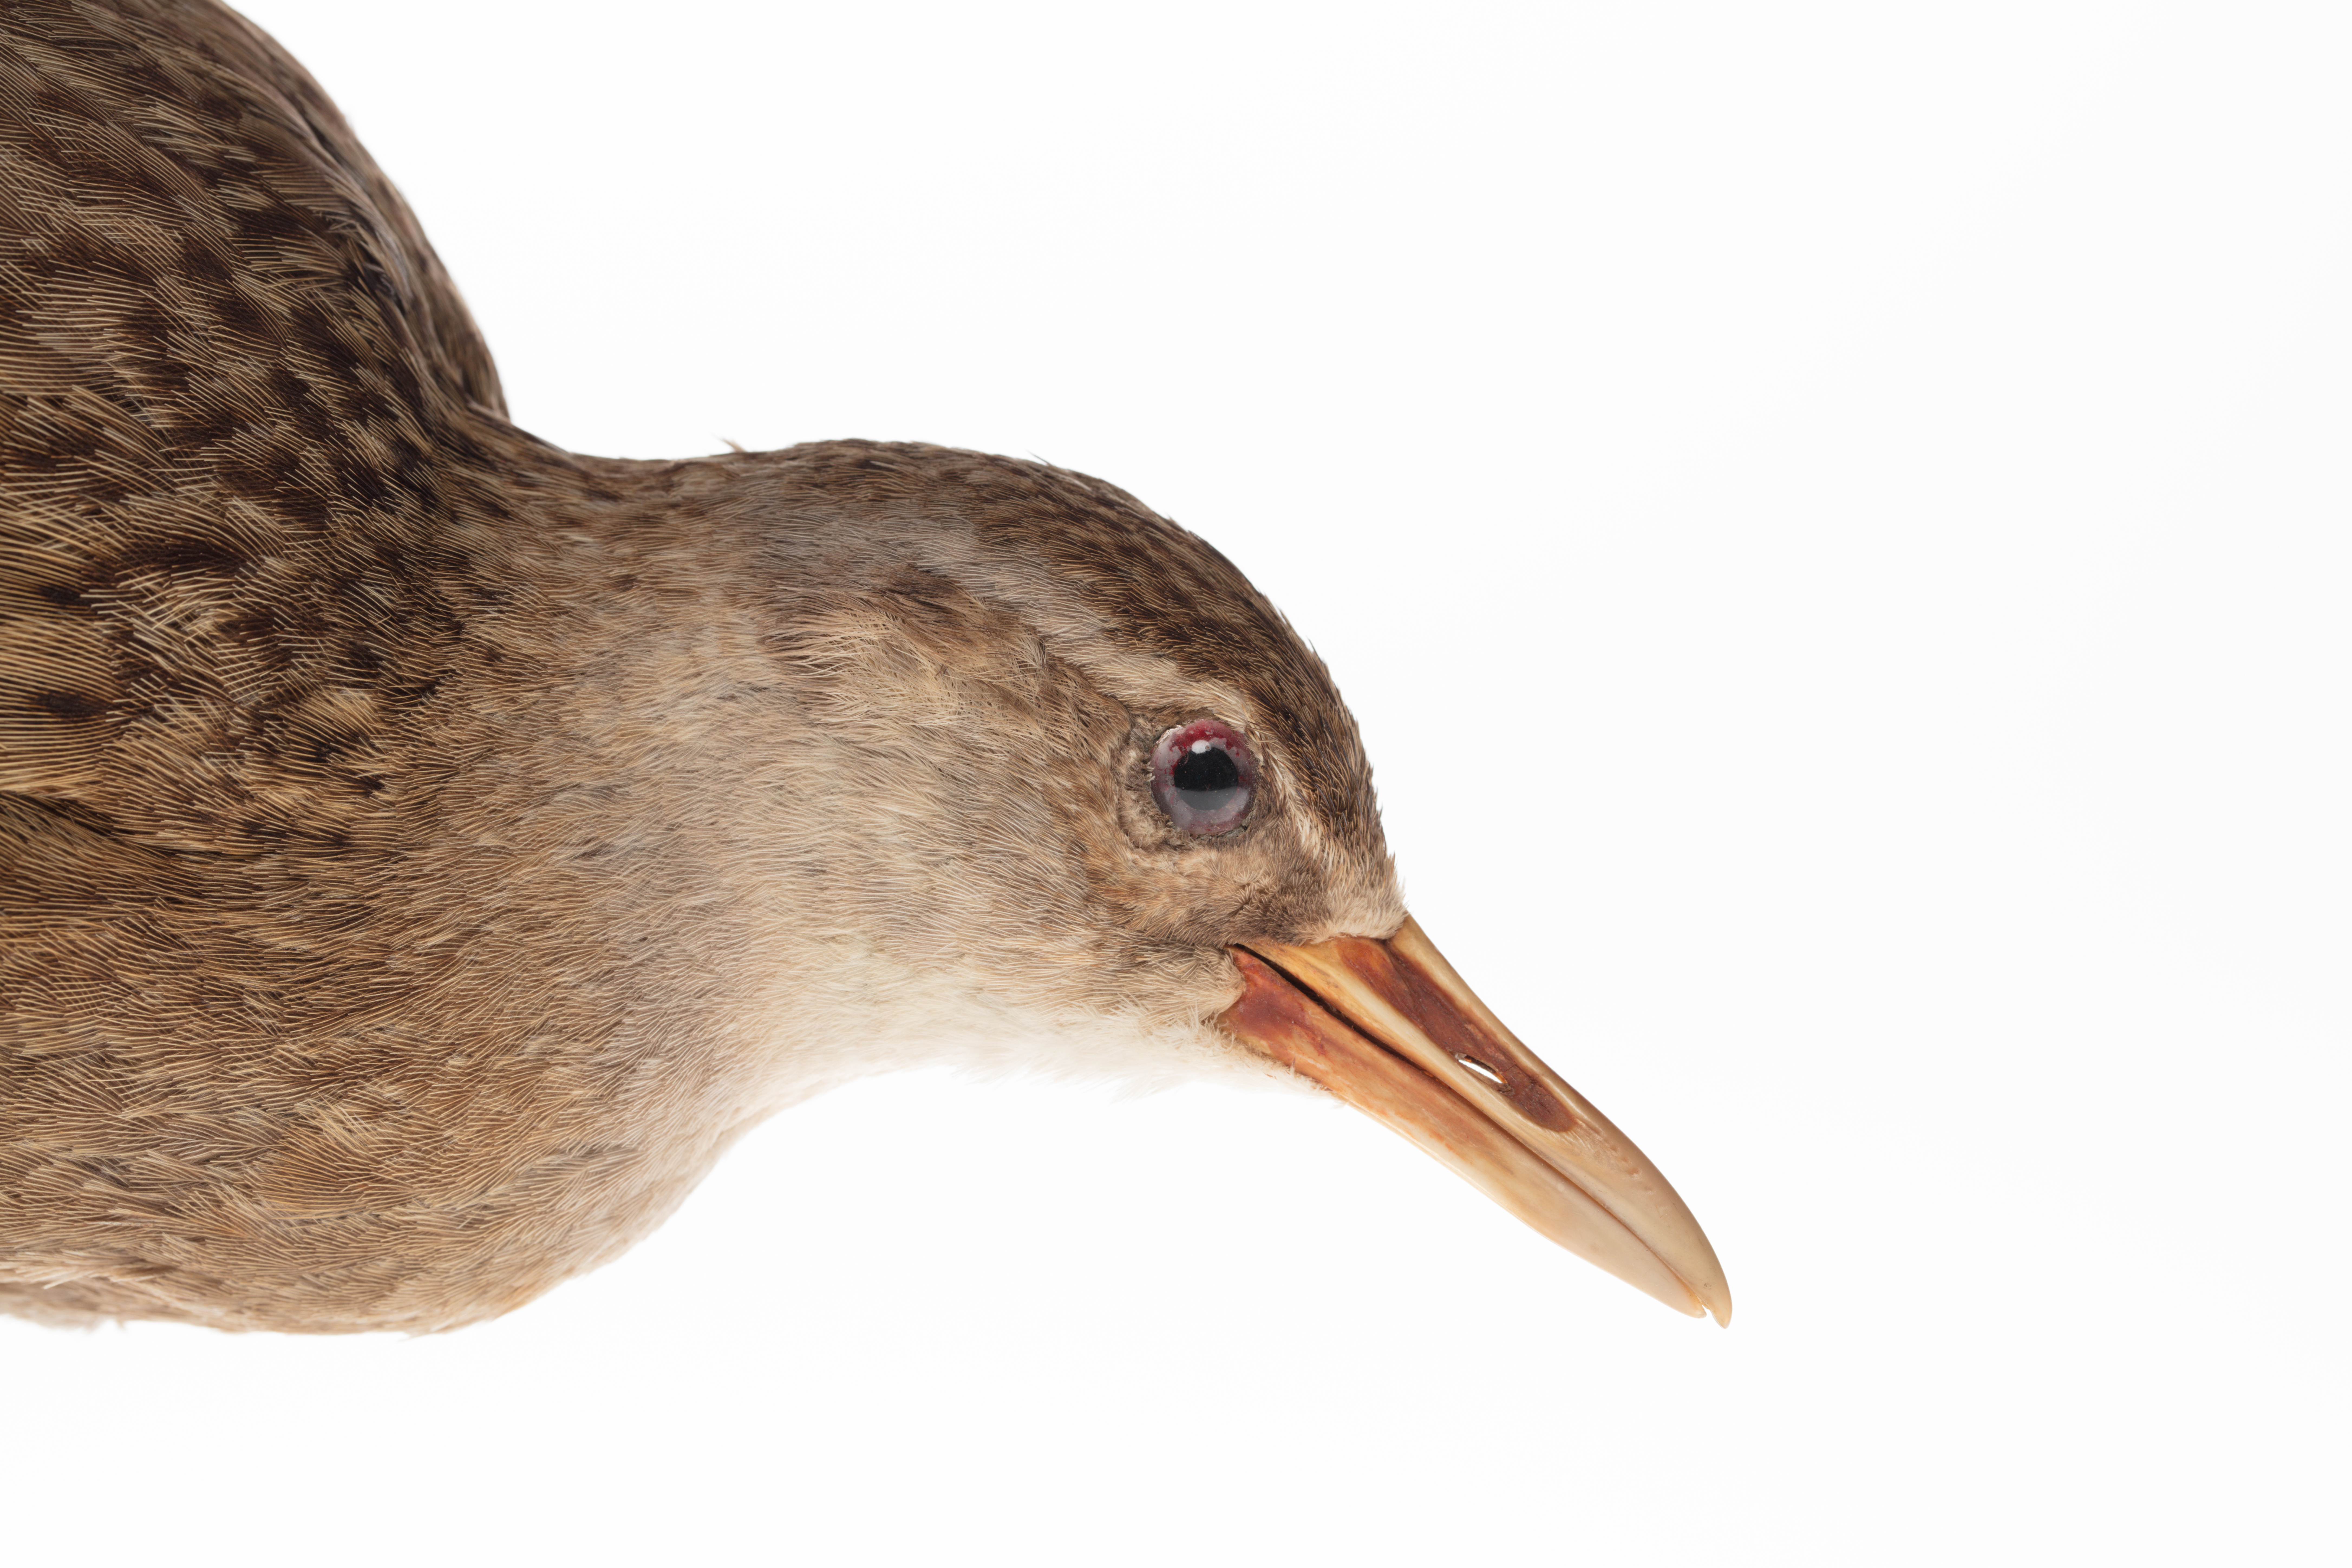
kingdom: Animalia
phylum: Chordata
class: Aves
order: Gruiformes
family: Rallidae
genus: Gallirallus
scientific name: Gallirallus australis
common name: Weka
